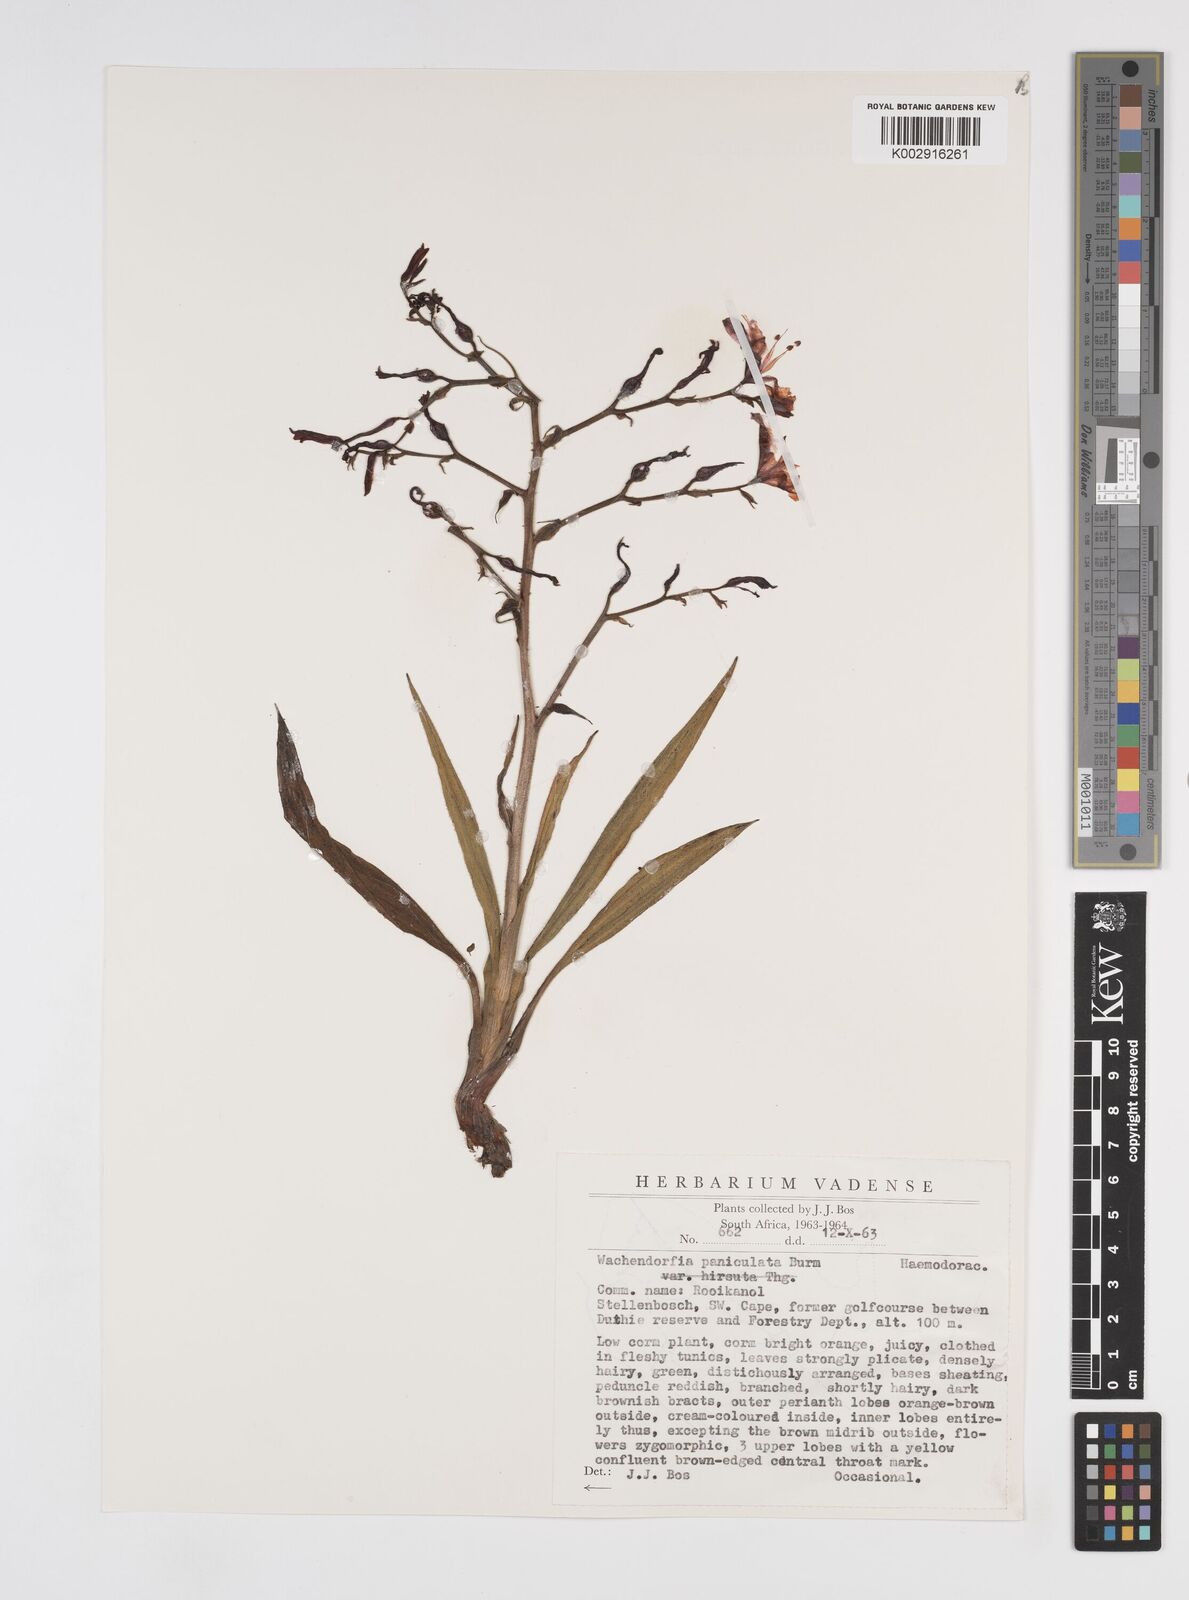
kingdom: Plantae
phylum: Tracheophyta
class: Liliopsida
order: Commelinales
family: Haemodoraceae
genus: Wachendorfia
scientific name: Wachendorfia paniculata
